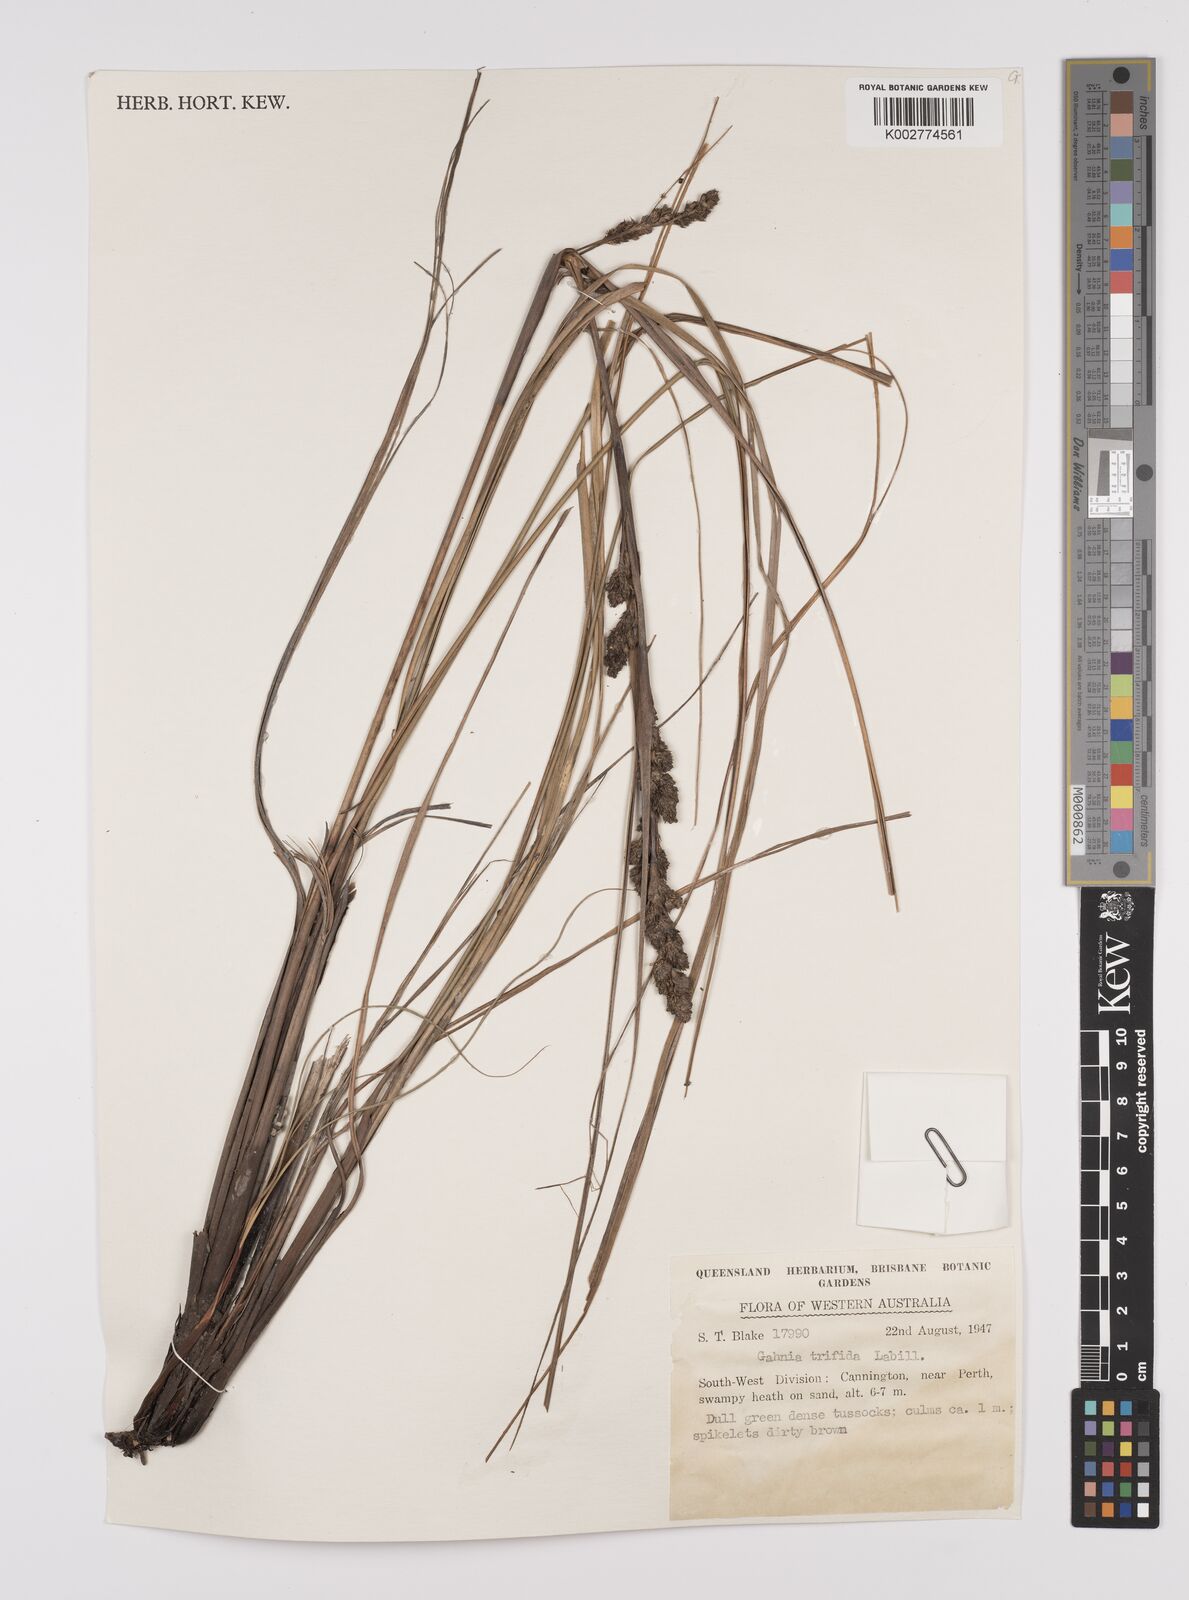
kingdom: Plantae
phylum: Tracheophyta
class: Liliopsida
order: Poales
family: Cyperaceae
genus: Gahnia
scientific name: Gahnia trifida
